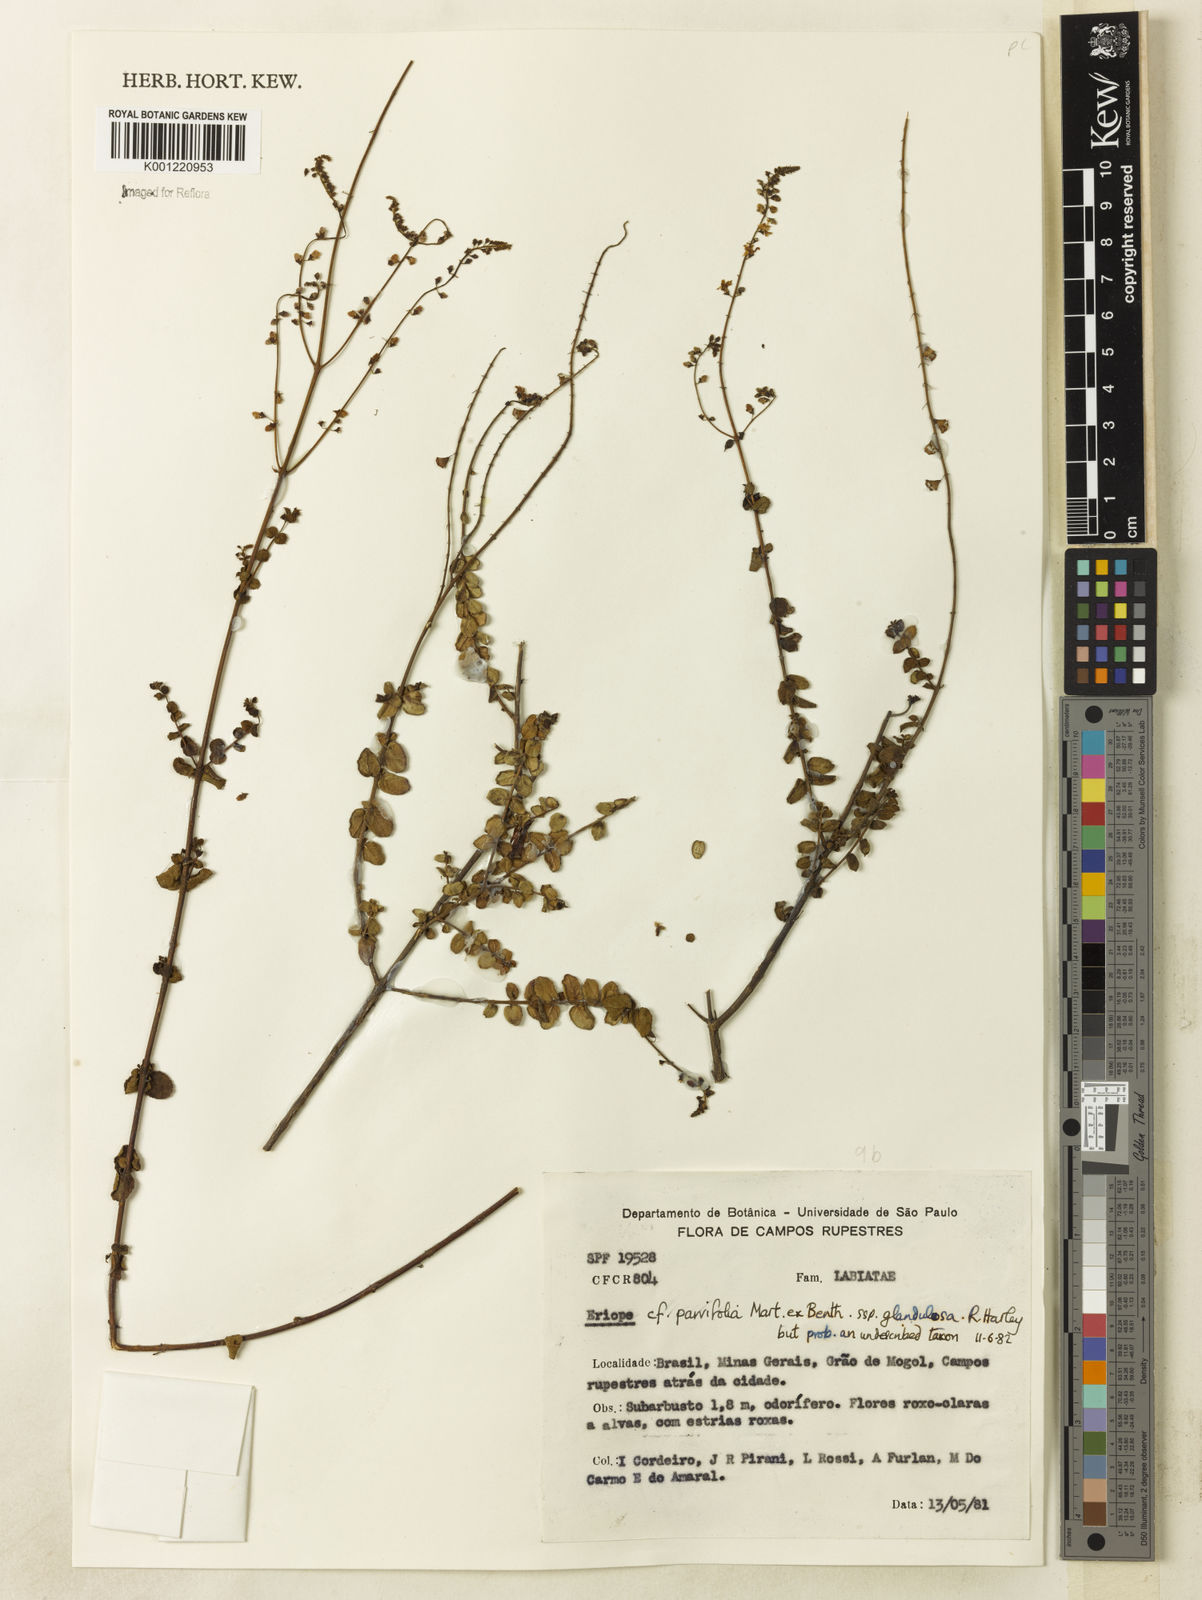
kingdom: Plantae
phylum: Tracheophyta
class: Magnoliopsida
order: Lamiales
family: Lamiaceae
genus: Eriope
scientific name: Eriope glandulosa
